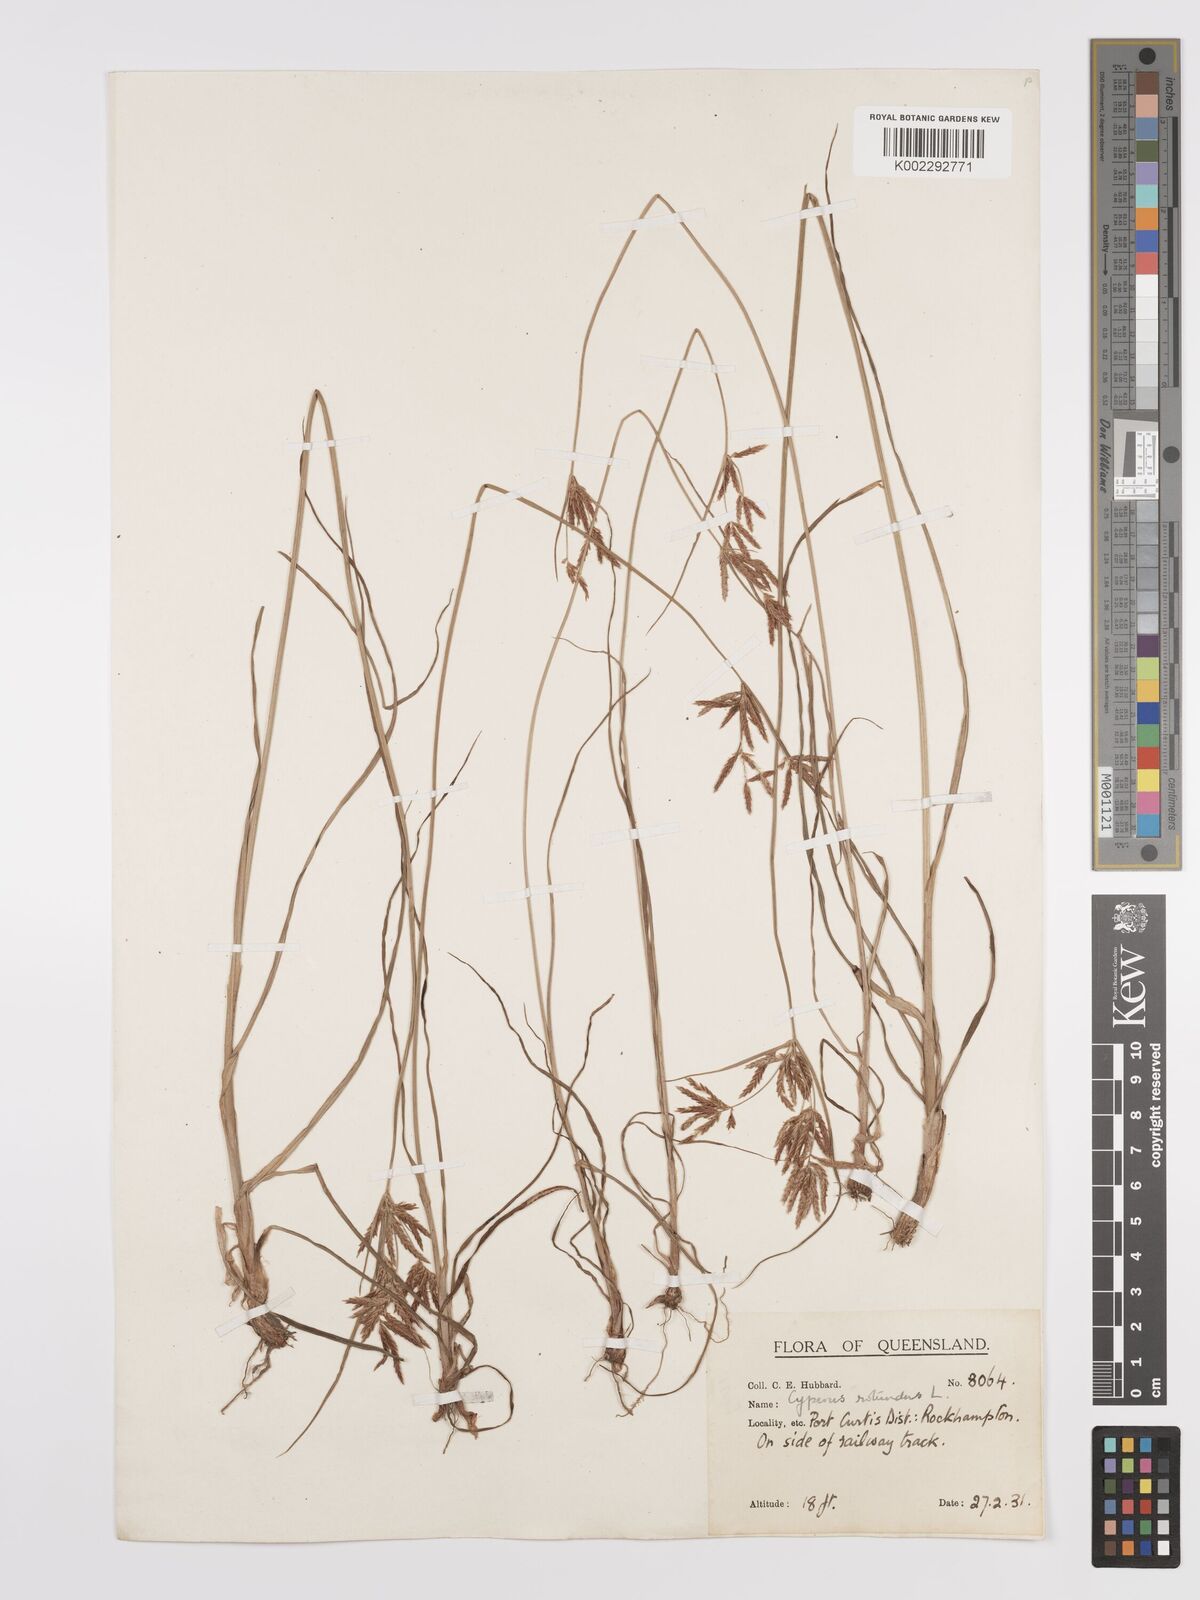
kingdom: Plantae
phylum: Tracheophyta
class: Liliopsida
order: Poales
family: Cyperaceae
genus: Cyperus
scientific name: Cyperus rotundus
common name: Nutgrass
